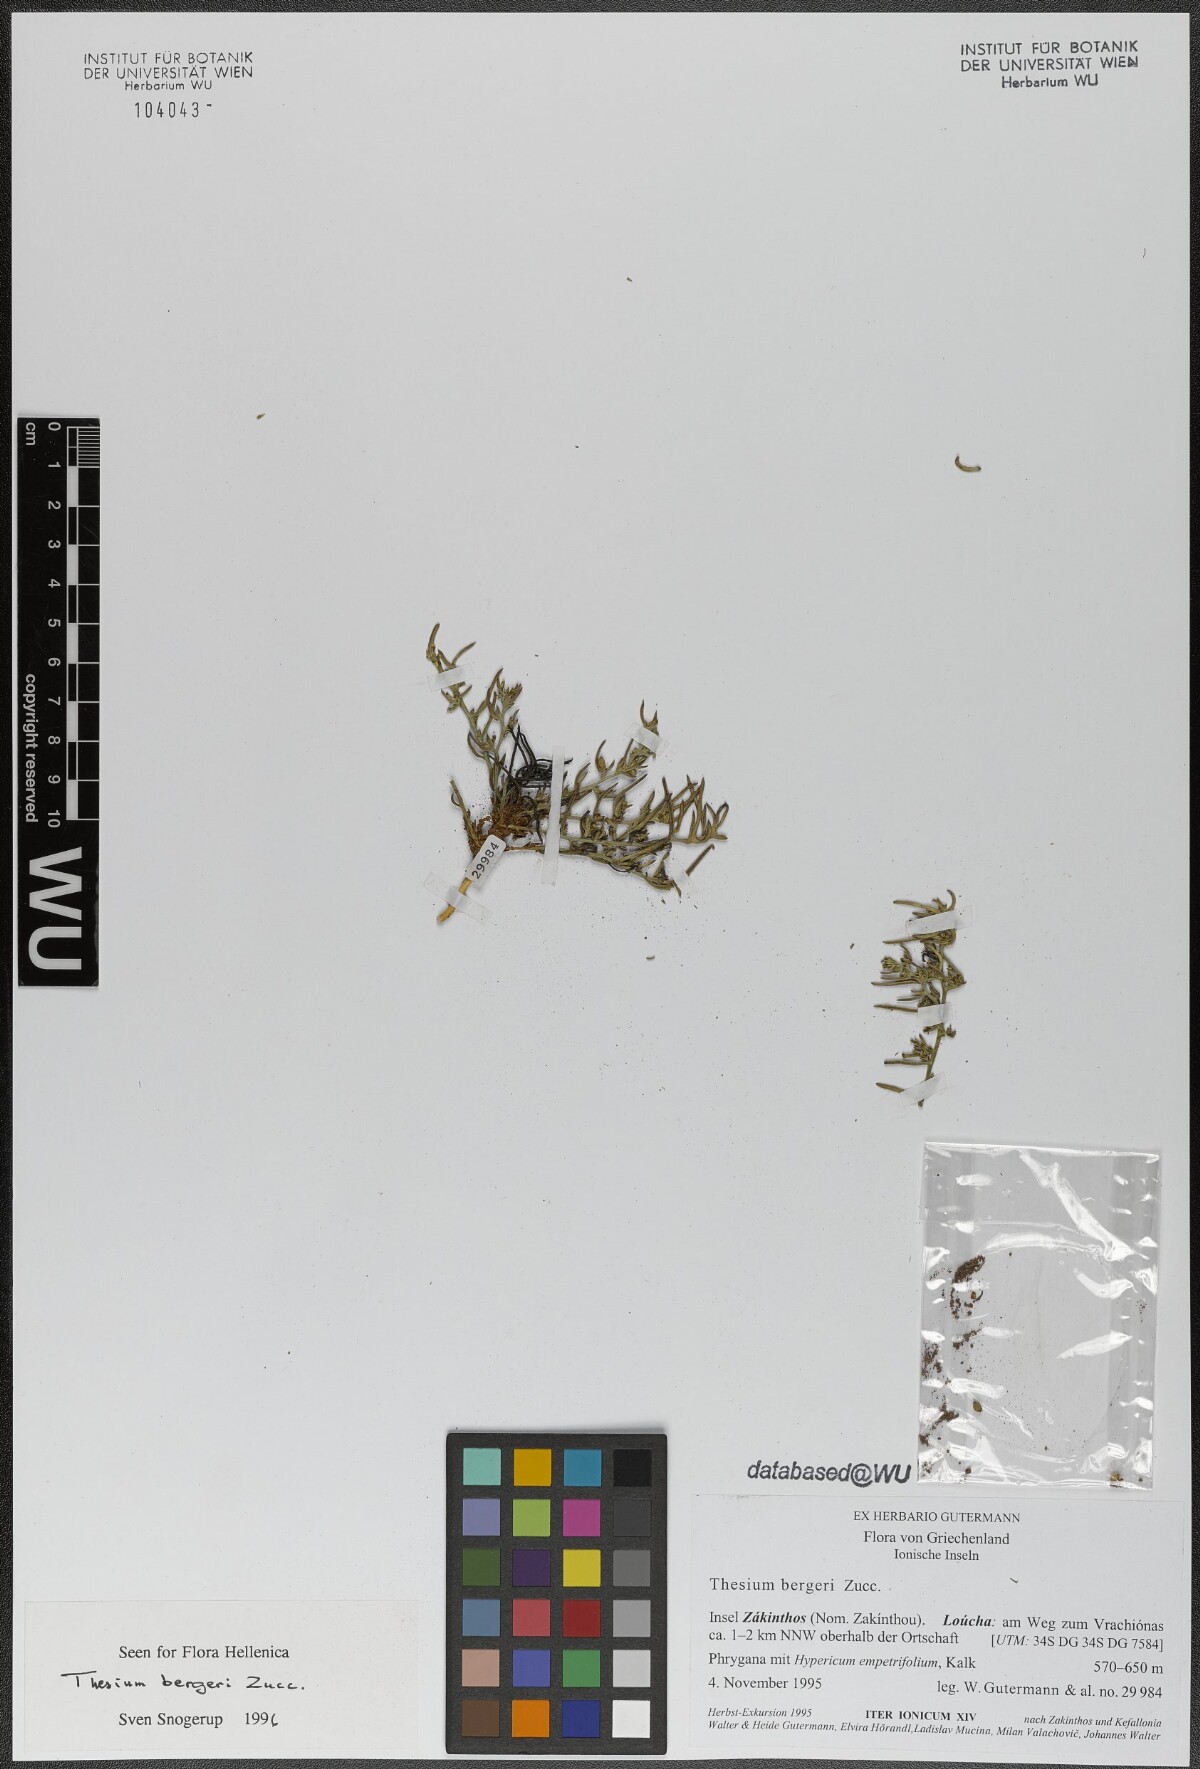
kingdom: Plantae
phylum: Tracheophyta
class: Magnoliopsida
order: Santalales
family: Thesiaceae
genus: Thesium
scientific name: Thesium bergeri
